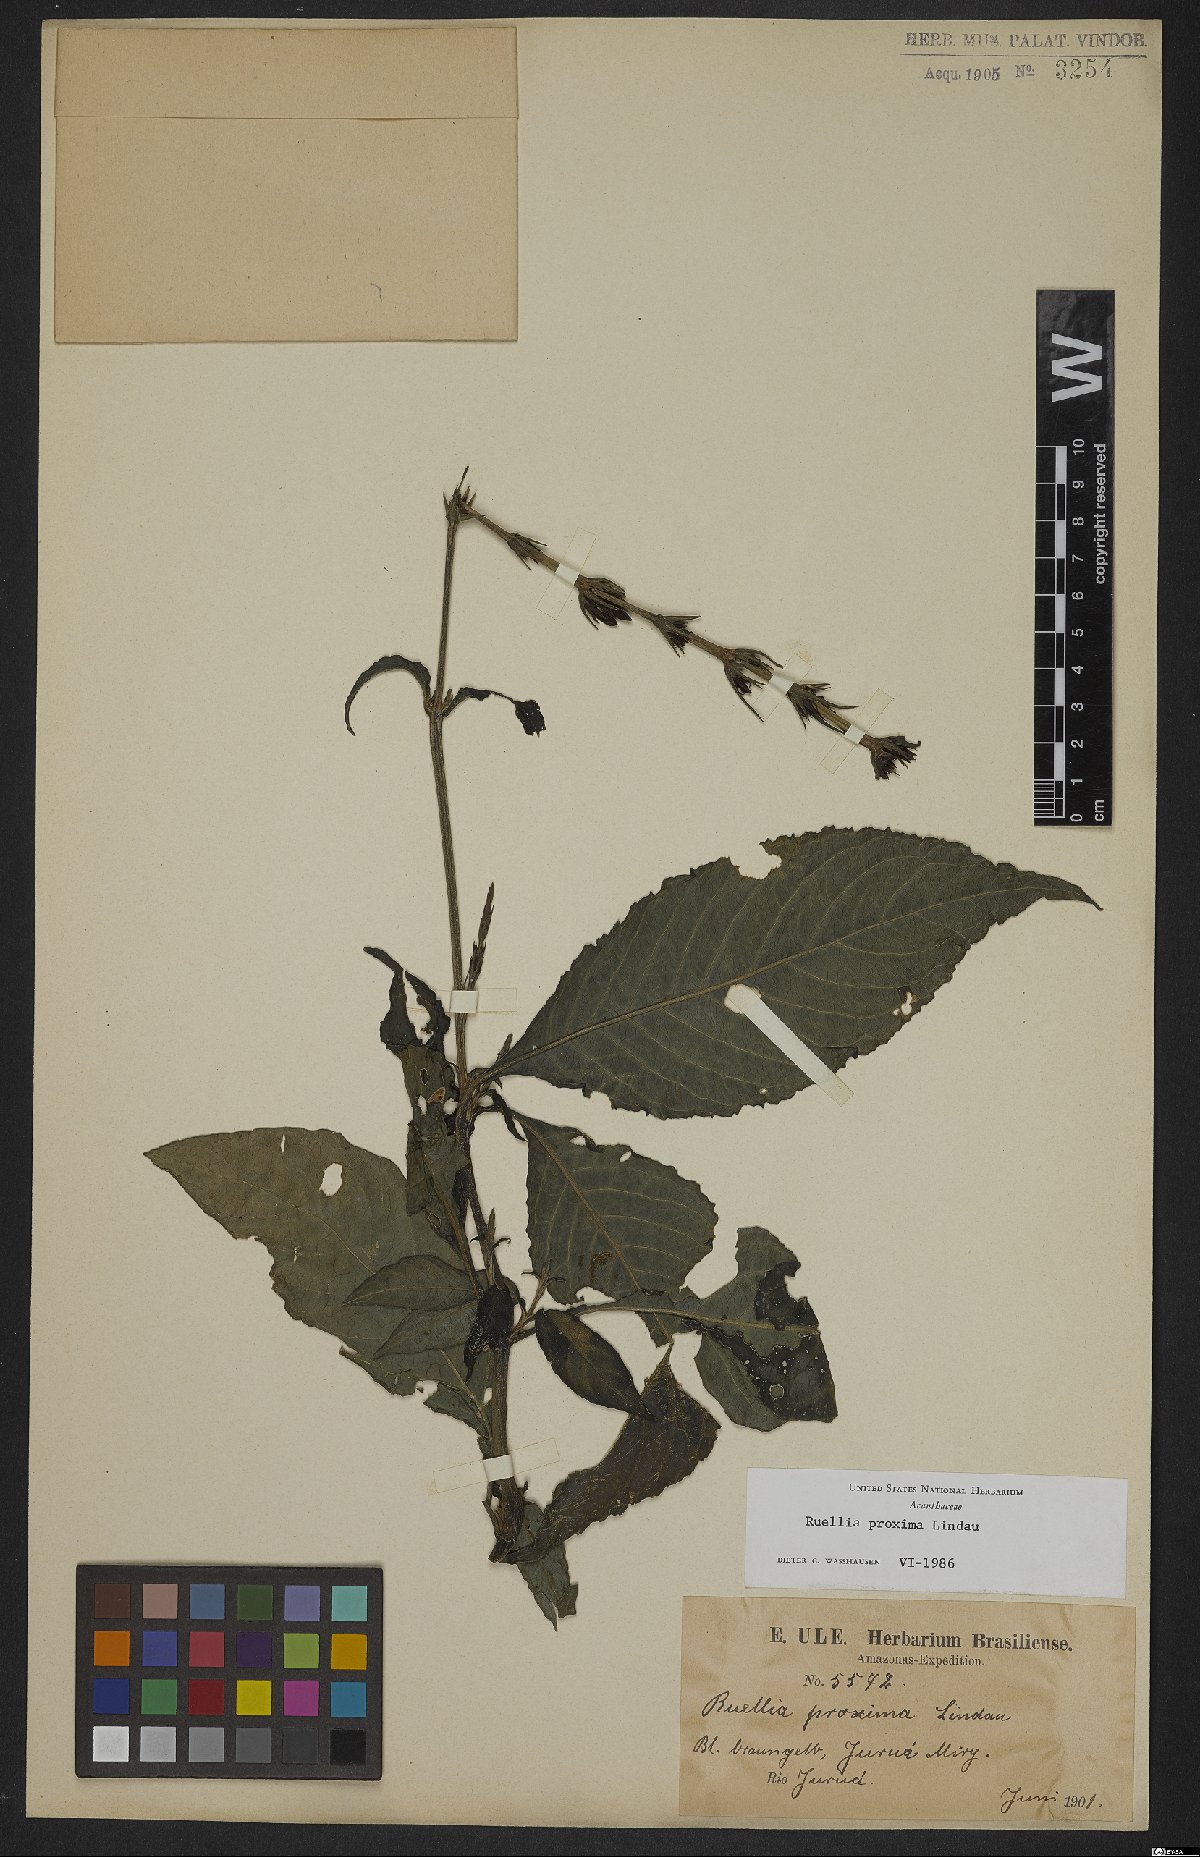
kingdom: Plantae
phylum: Tracheophyta
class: Magnoliopsida
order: Lamiales
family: Acanthaceae
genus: Ruellia
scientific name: Ruellia proxima
